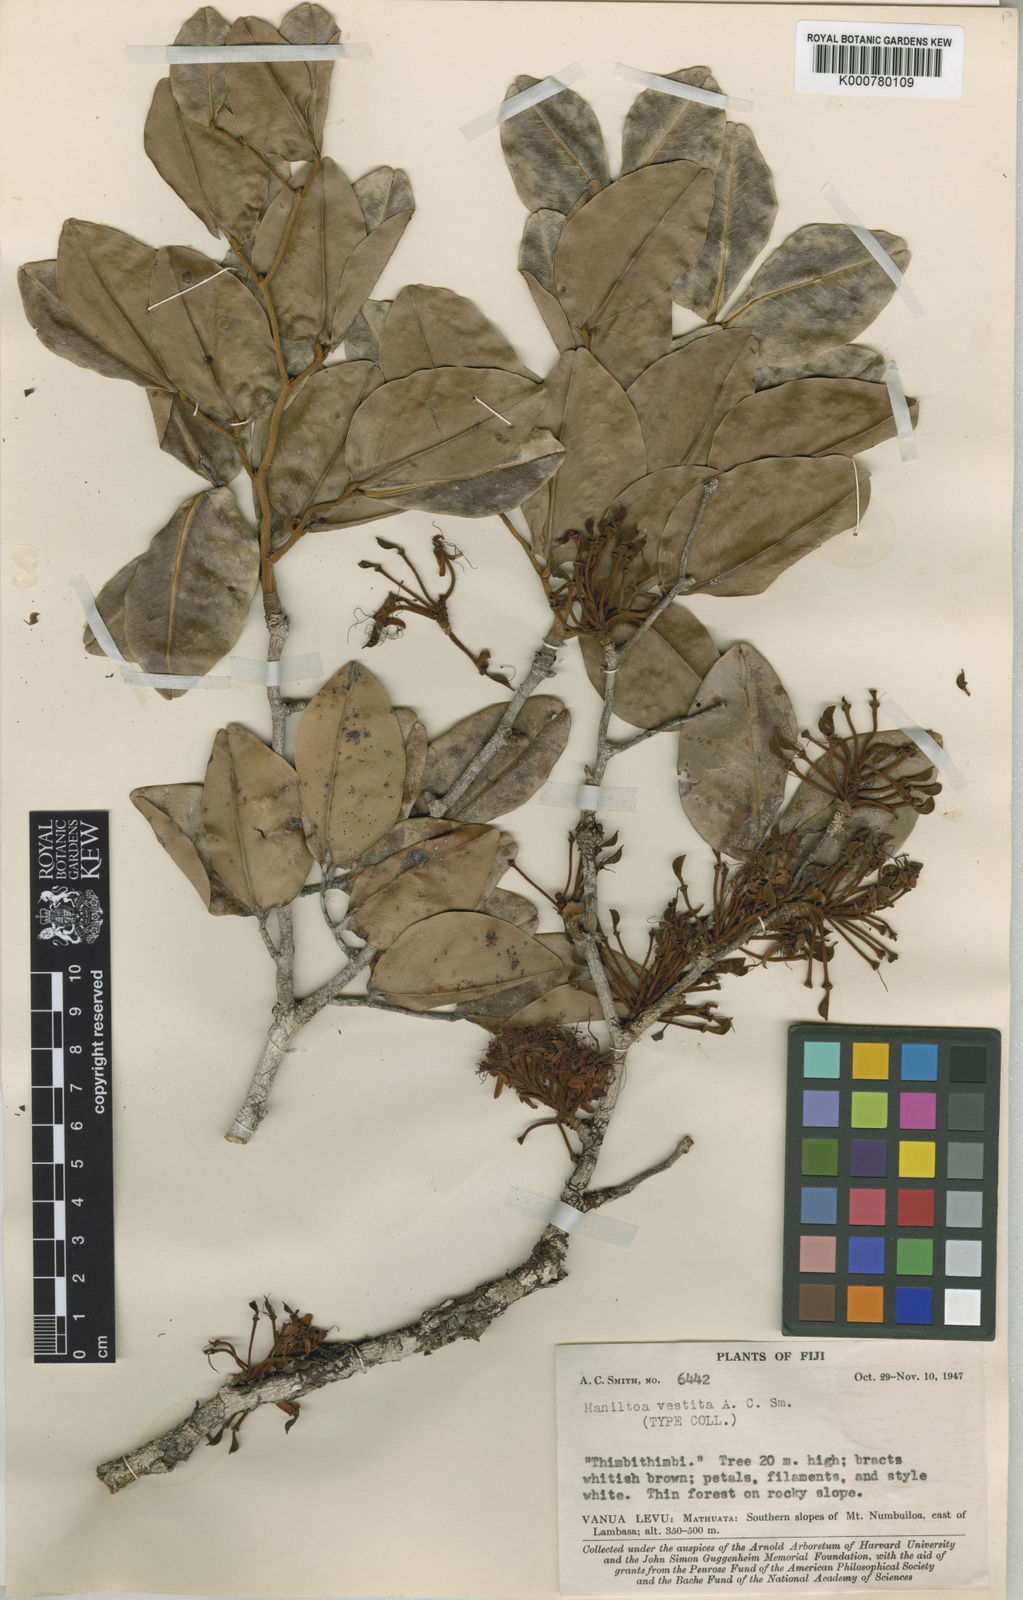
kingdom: Plantae
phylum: Tracheophyta
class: Magnoliopsida
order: Fabales
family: Fabaceae
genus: Cynometra
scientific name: Cynometra vestita
